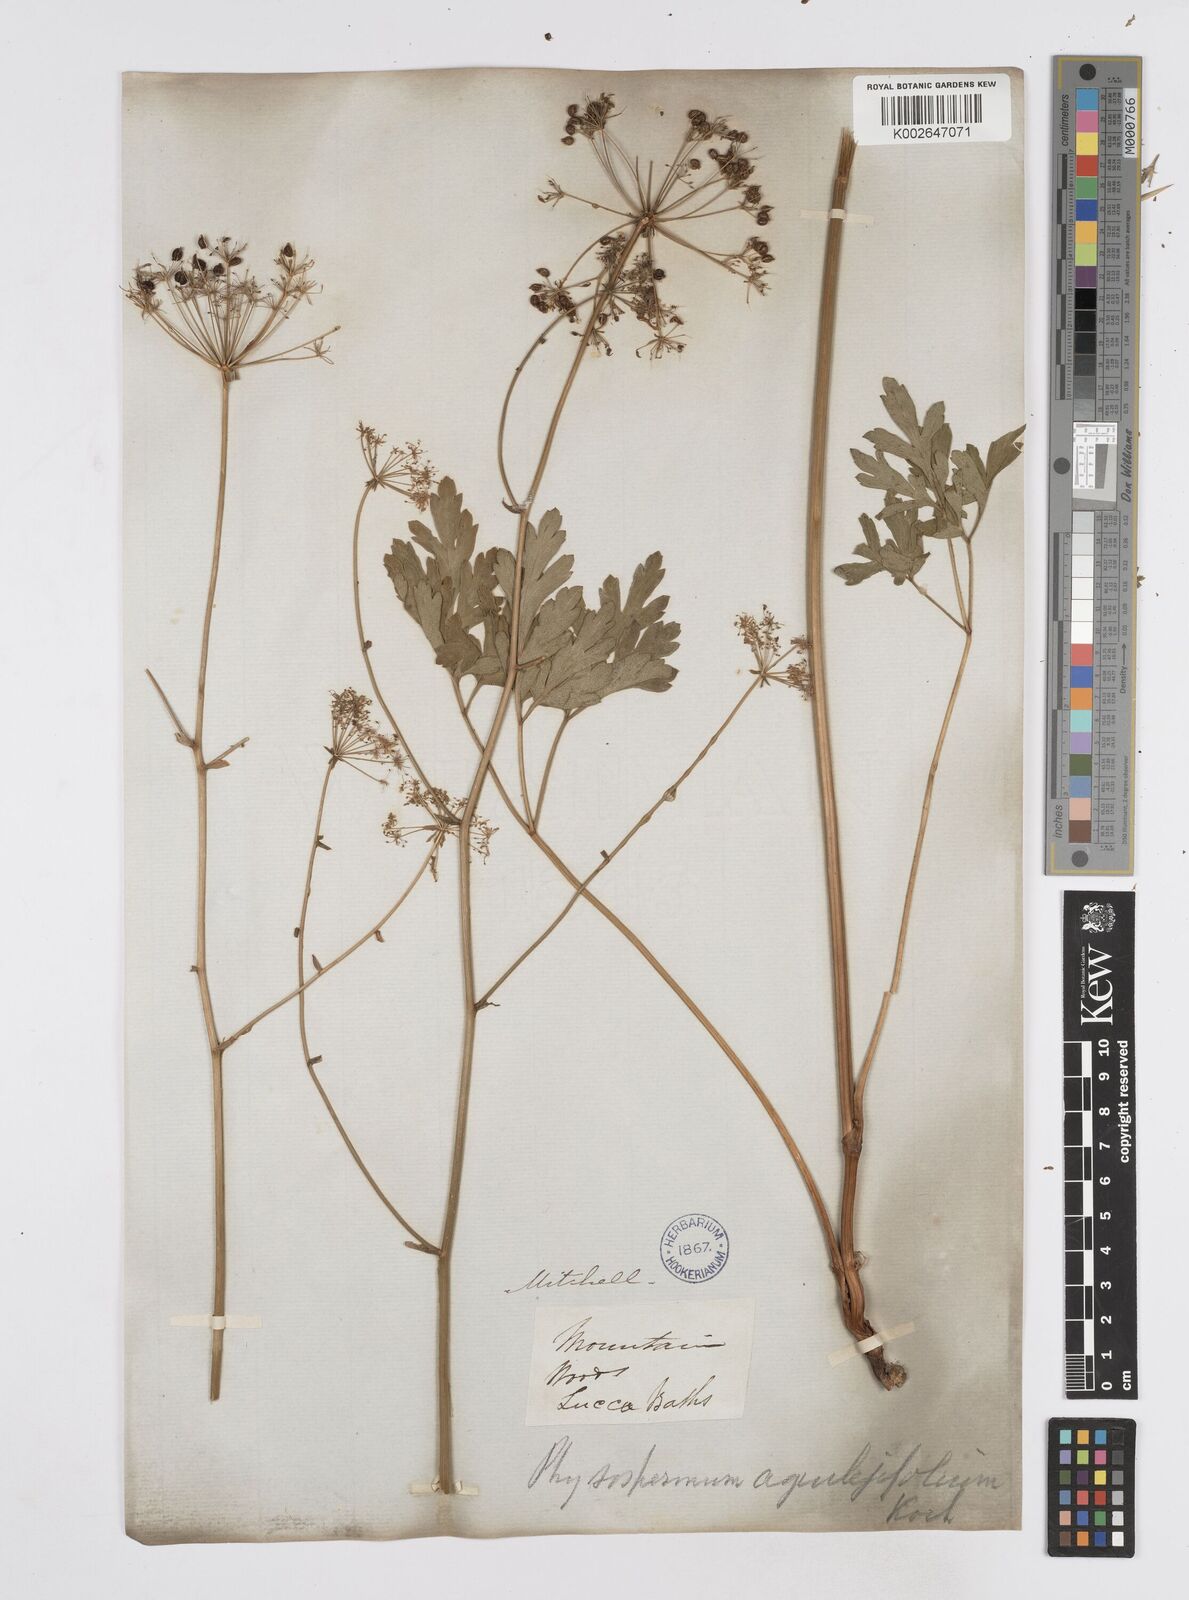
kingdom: Plantae
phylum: Tracheophyta
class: Magnoliopsida
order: Apiales
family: Apiaceae
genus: Physospermum
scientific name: Physospermum cornubiense
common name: Bladderseed
